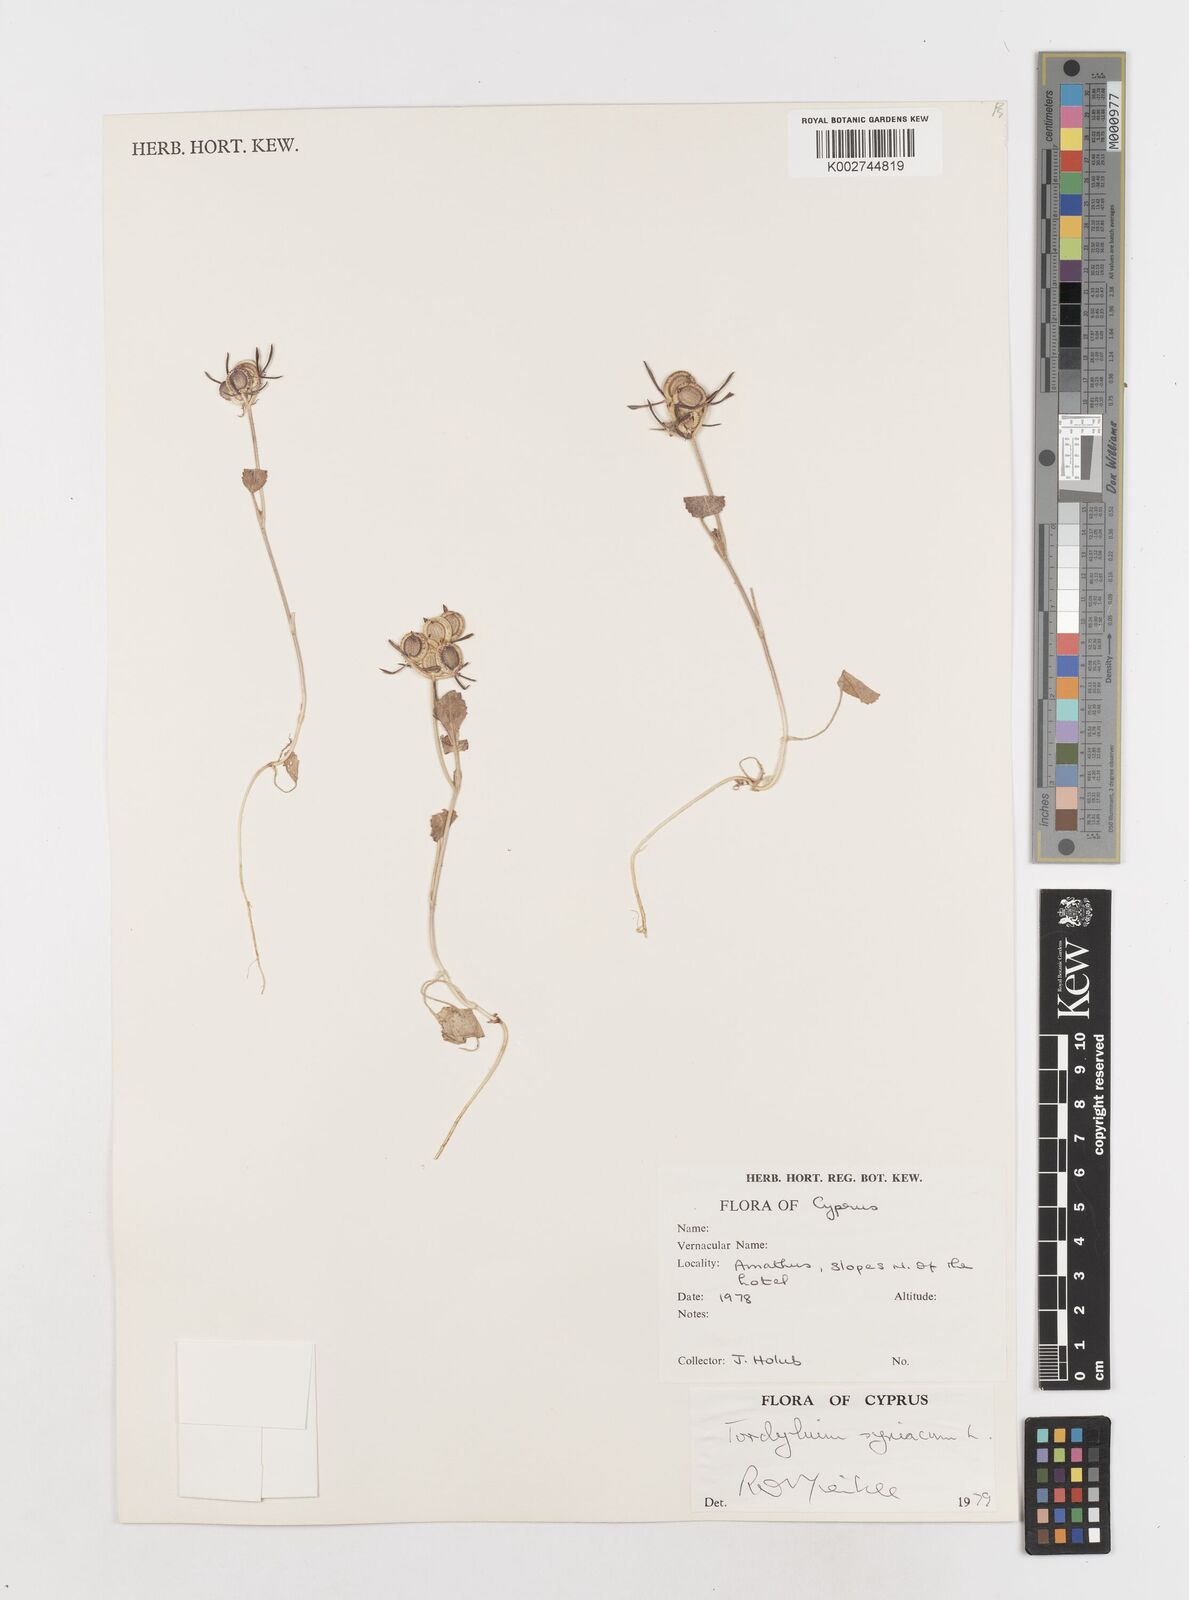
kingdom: Plantae
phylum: Tracheophyta
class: Magnoliopsida
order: Apiales
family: Apiaceae
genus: Tordylium
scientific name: Tordylium syriacum
